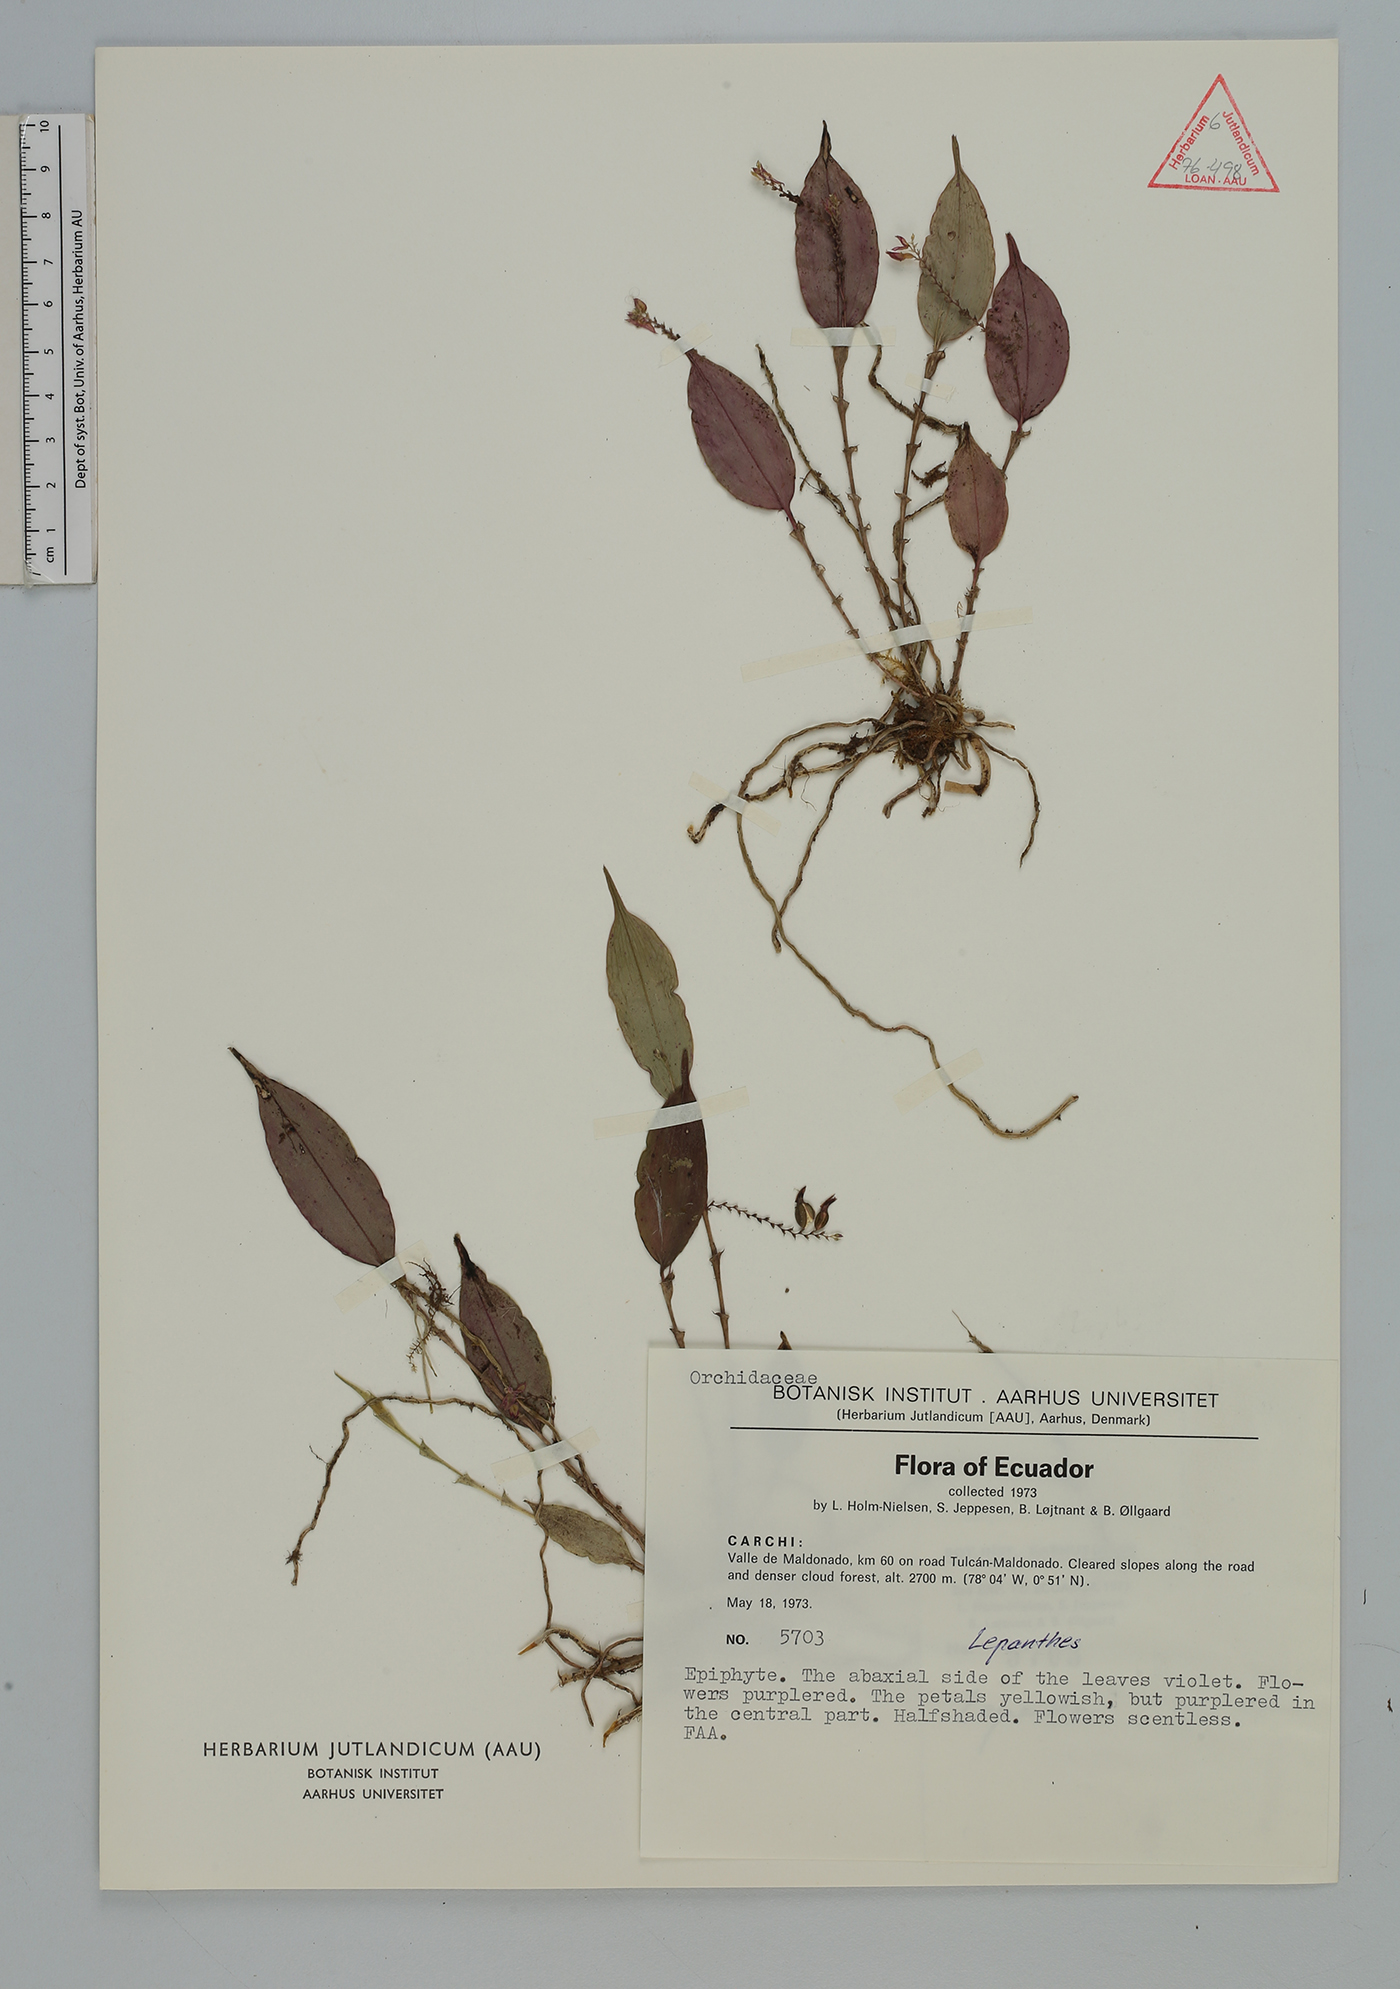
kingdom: Plantae
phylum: Tracheophyta
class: Liliopsida
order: Asparagales
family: Orchidaceae
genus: Lepanthes
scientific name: Lepanthes
